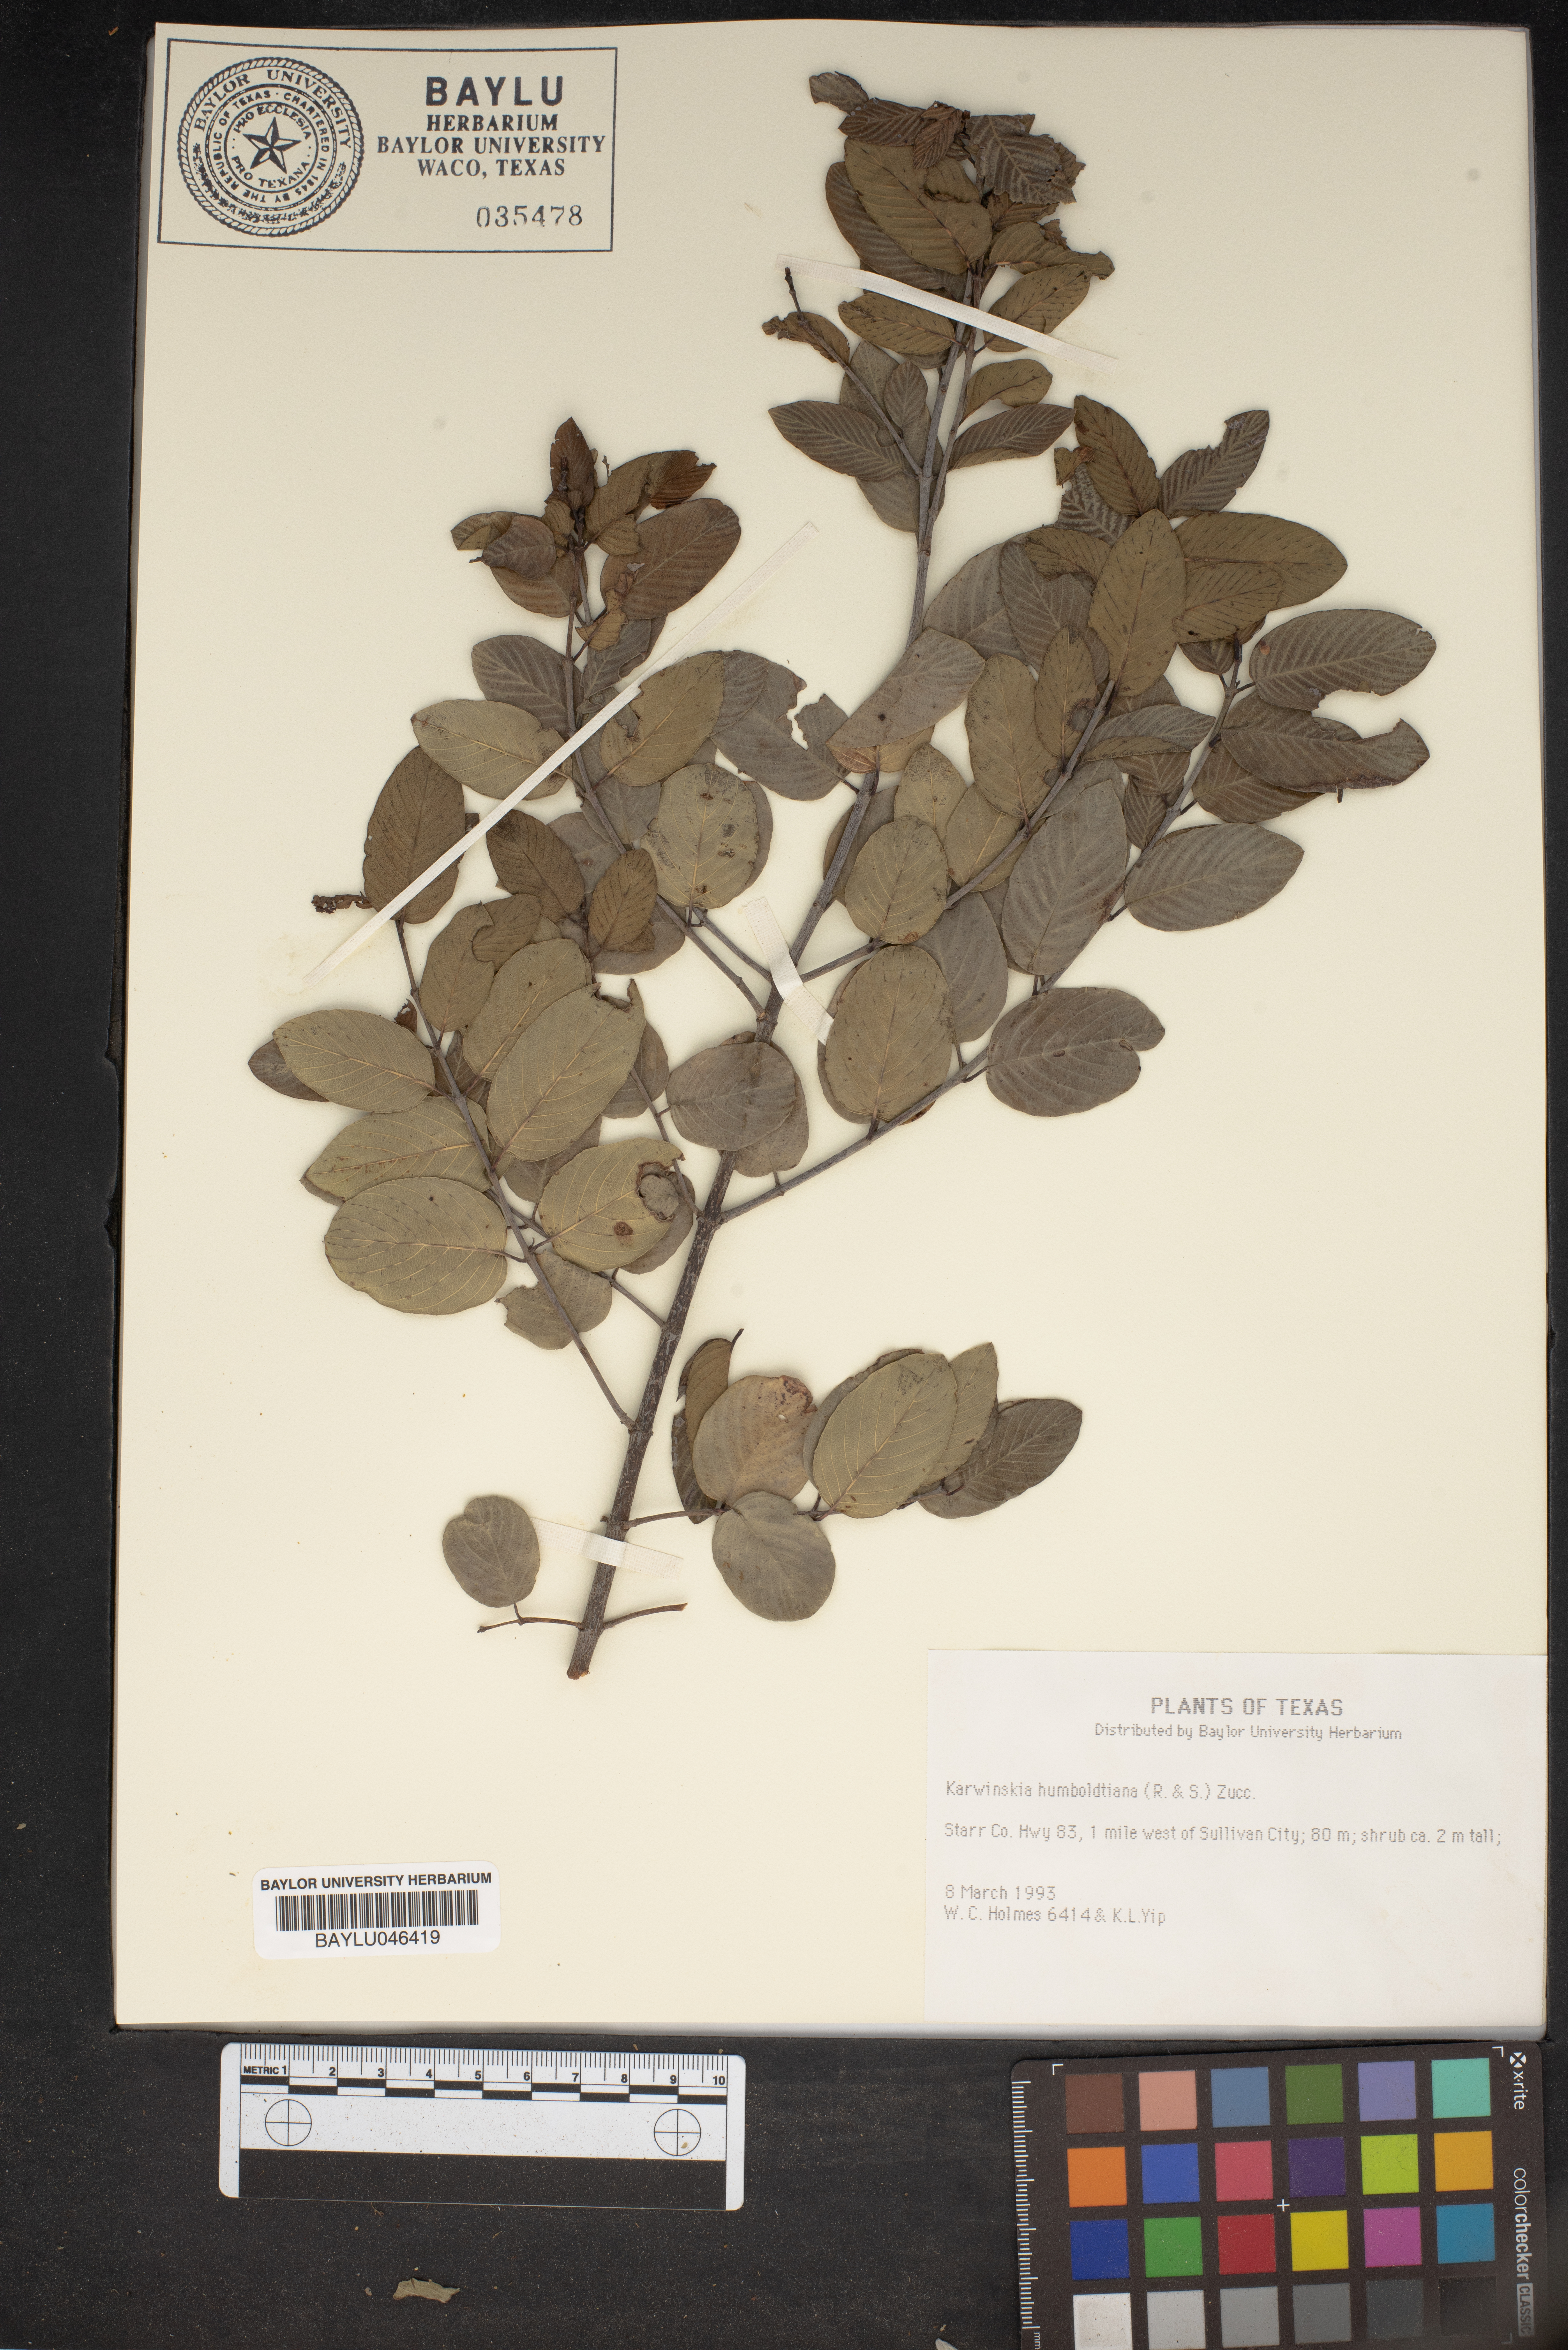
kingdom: Plantae
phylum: Tracheophyta
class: Magnoliopsida
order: Rosales
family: Rhamnaceae
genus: Karwinskia
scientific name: Karwinskia humboldtiana
